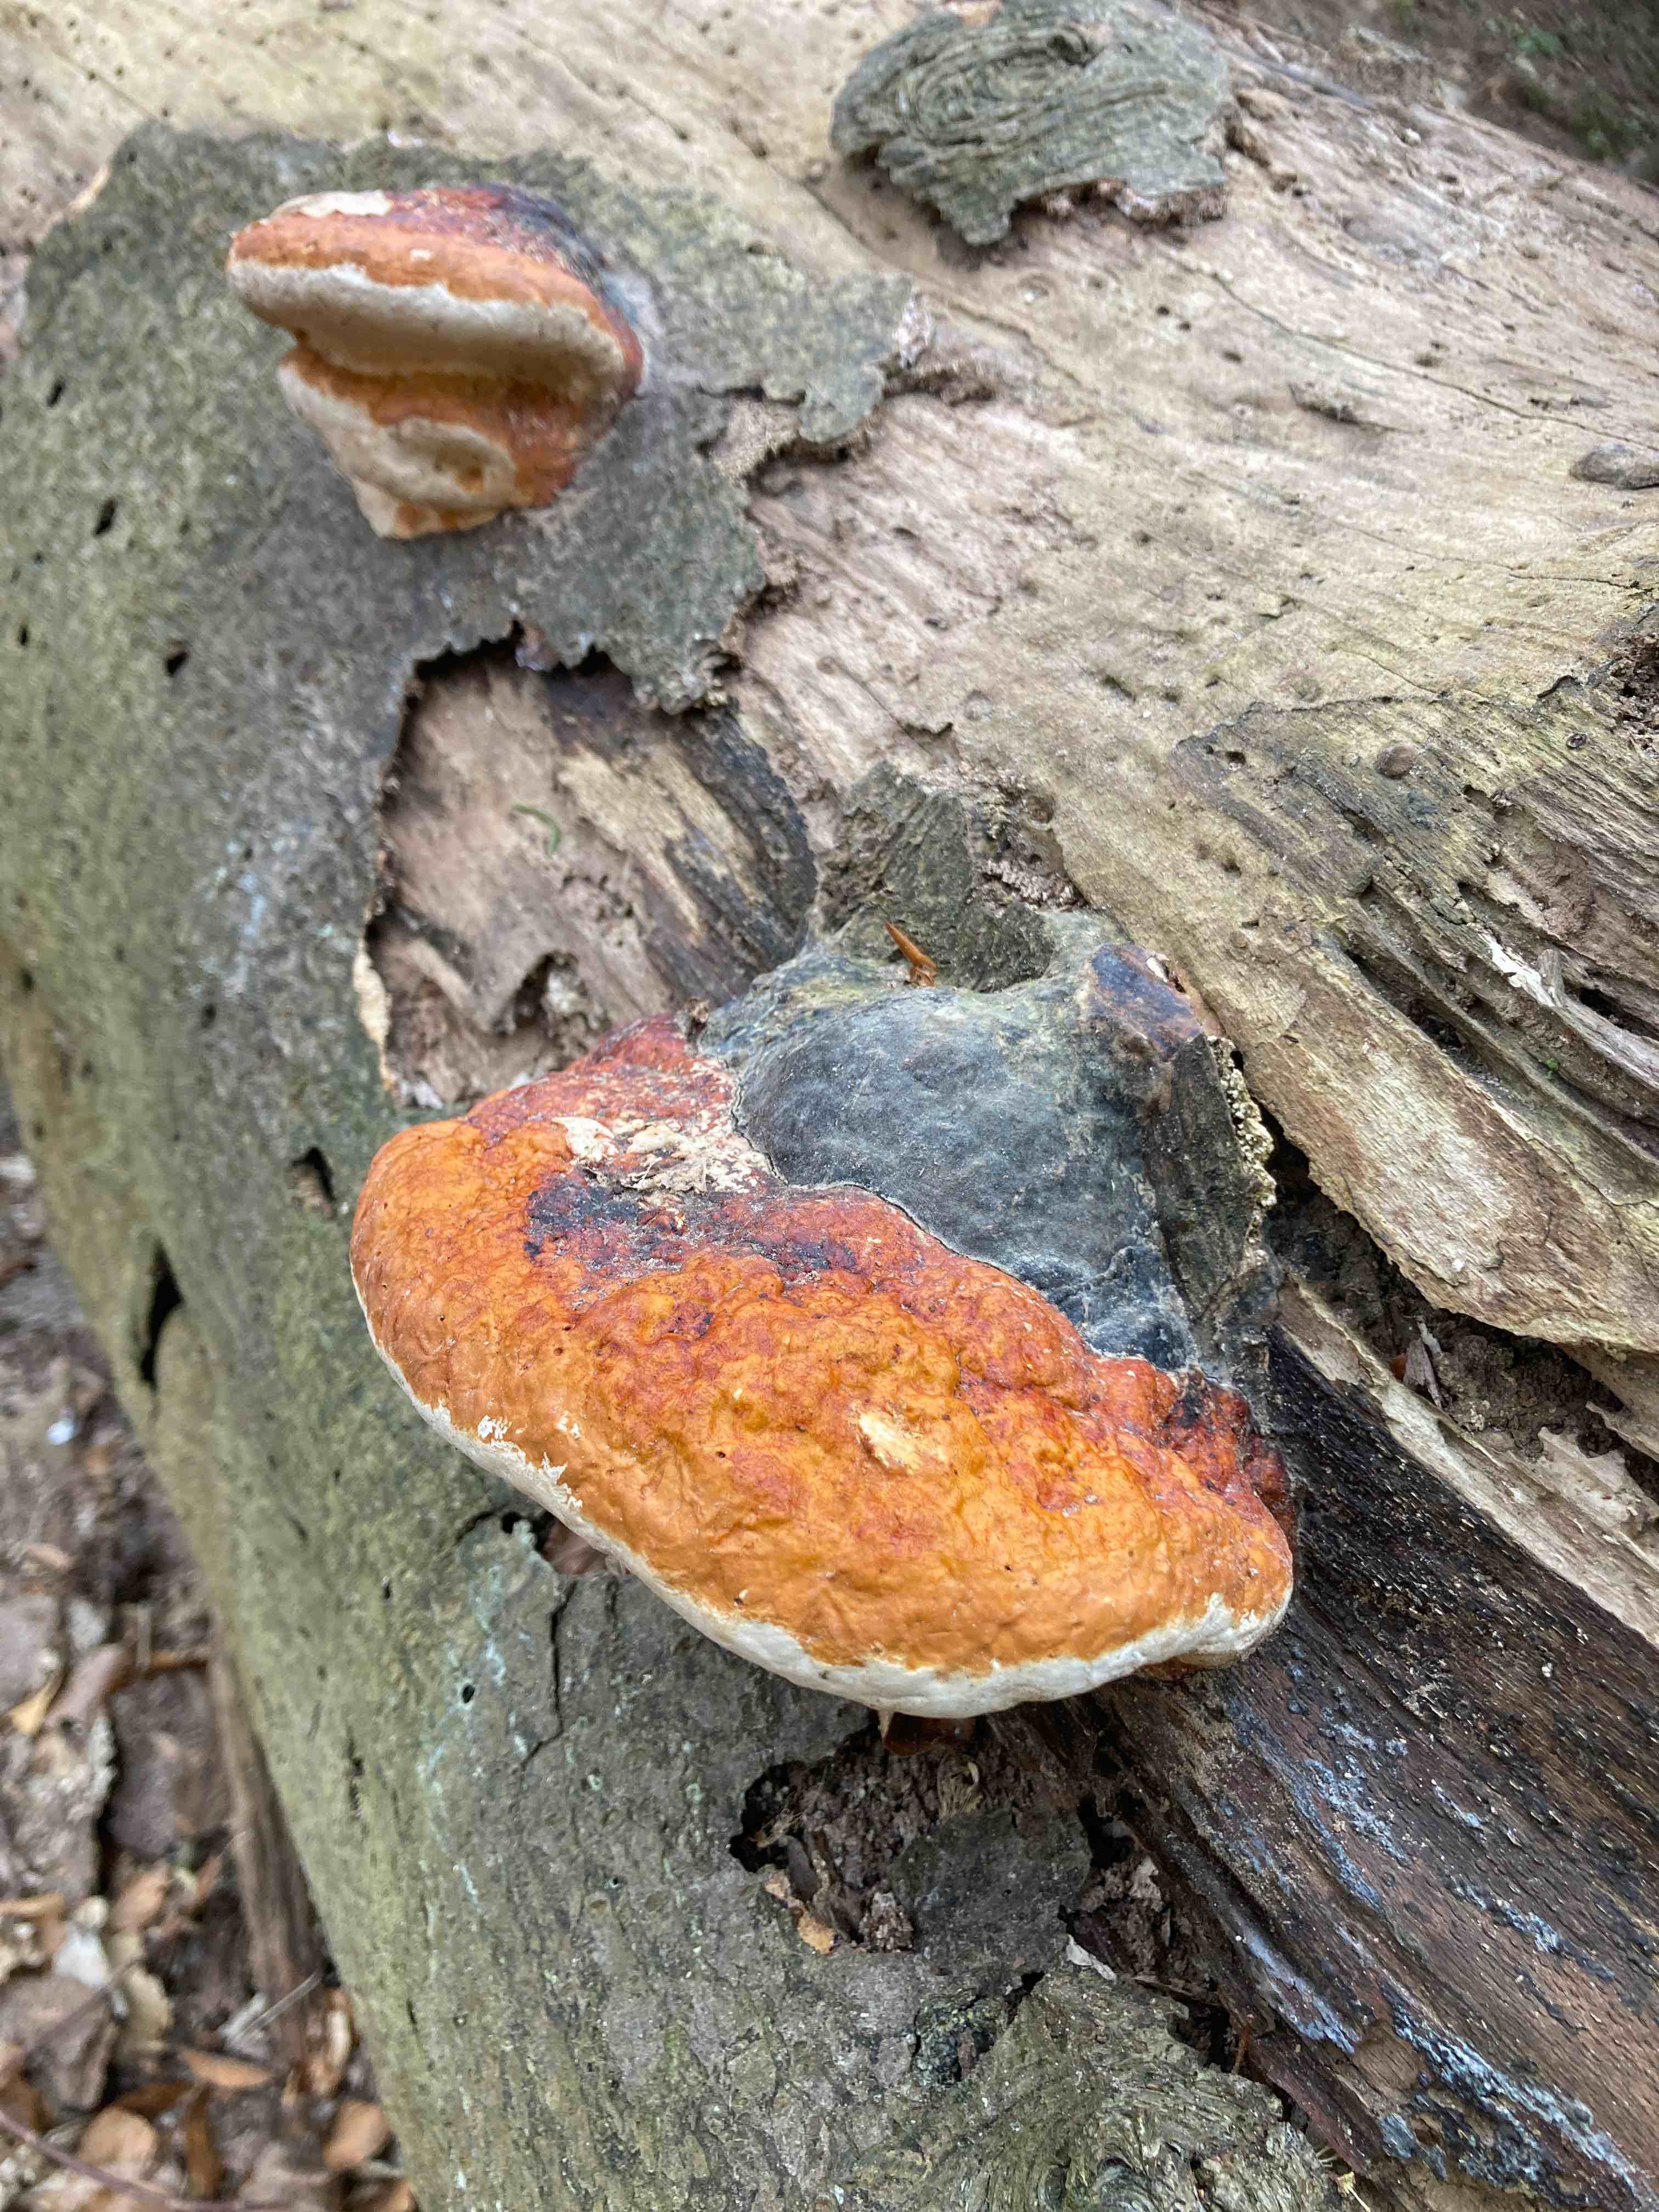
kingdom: Fungi
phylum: Basidiomycota
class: Agaricomycetes
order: Polyporales
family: Fomitopsidaceae
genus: Fomitopsis
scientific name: Fomitopsis pinicola
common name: randbæltet hovporesvamp
